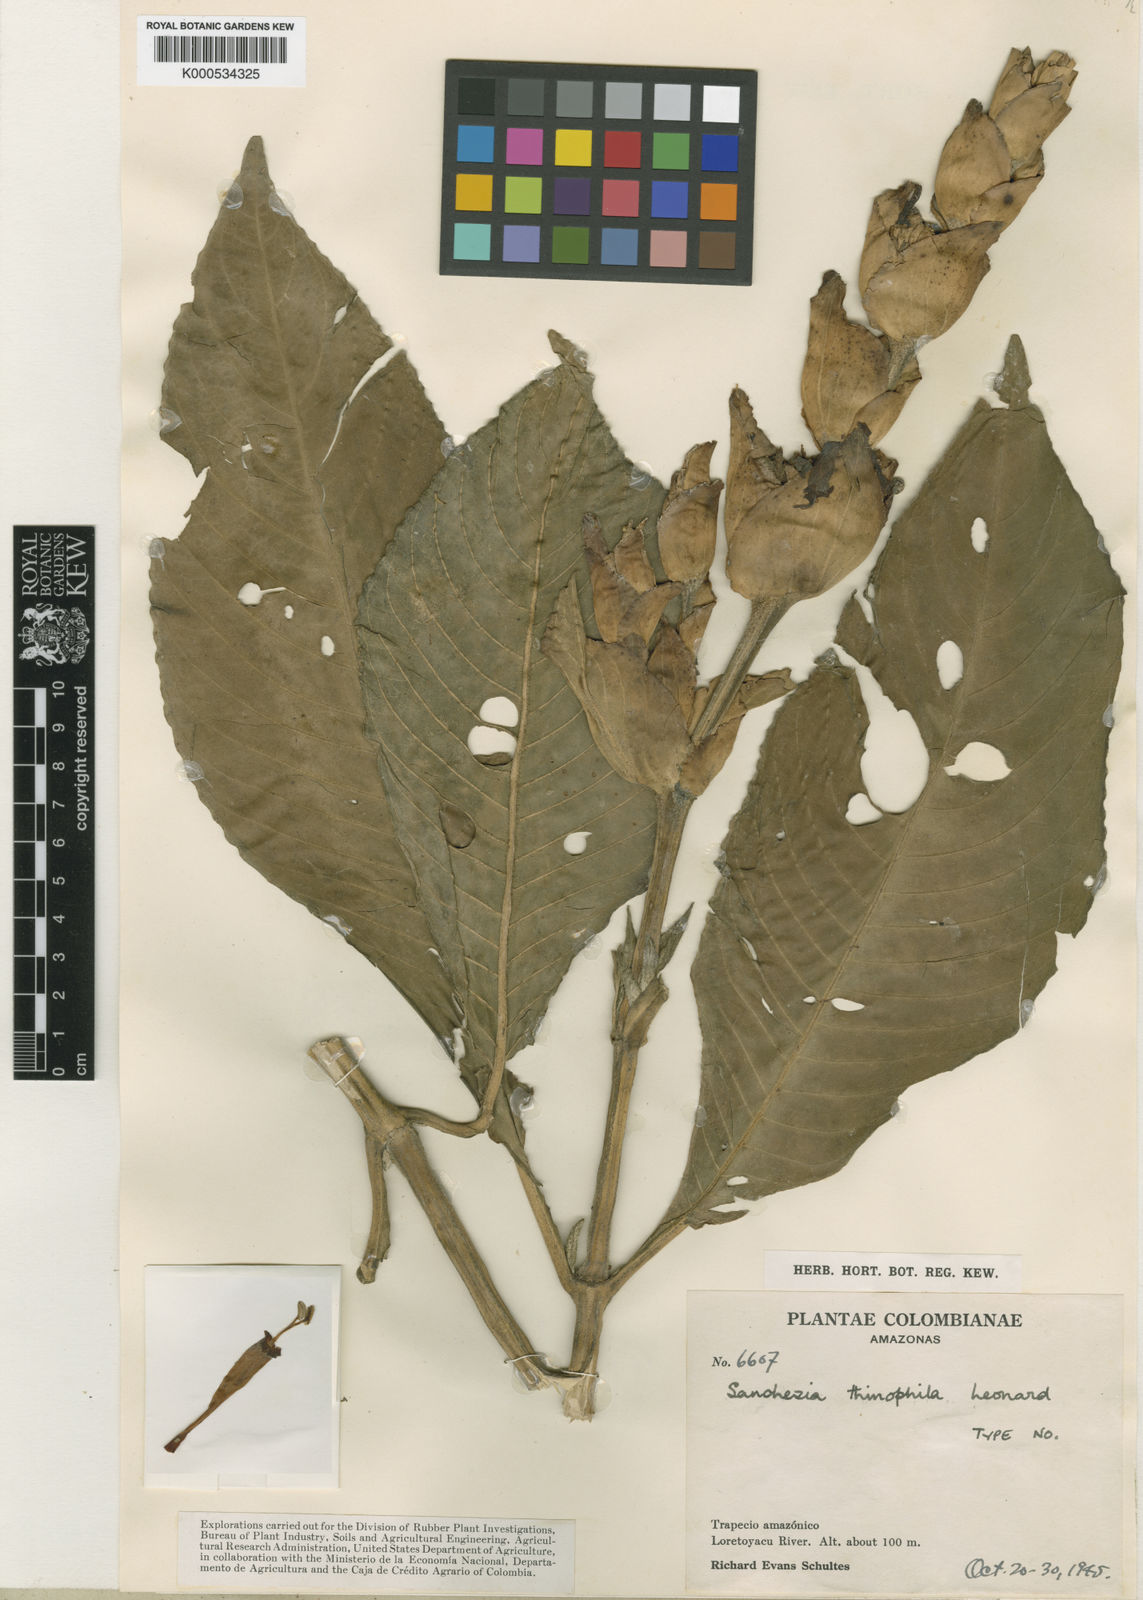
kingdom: Plantae
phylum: Tracheophyta
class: Magnoliopsida
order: Lamiales
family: Acanthaceae
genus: Sanchezia
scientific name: Sanchezia thinophila
